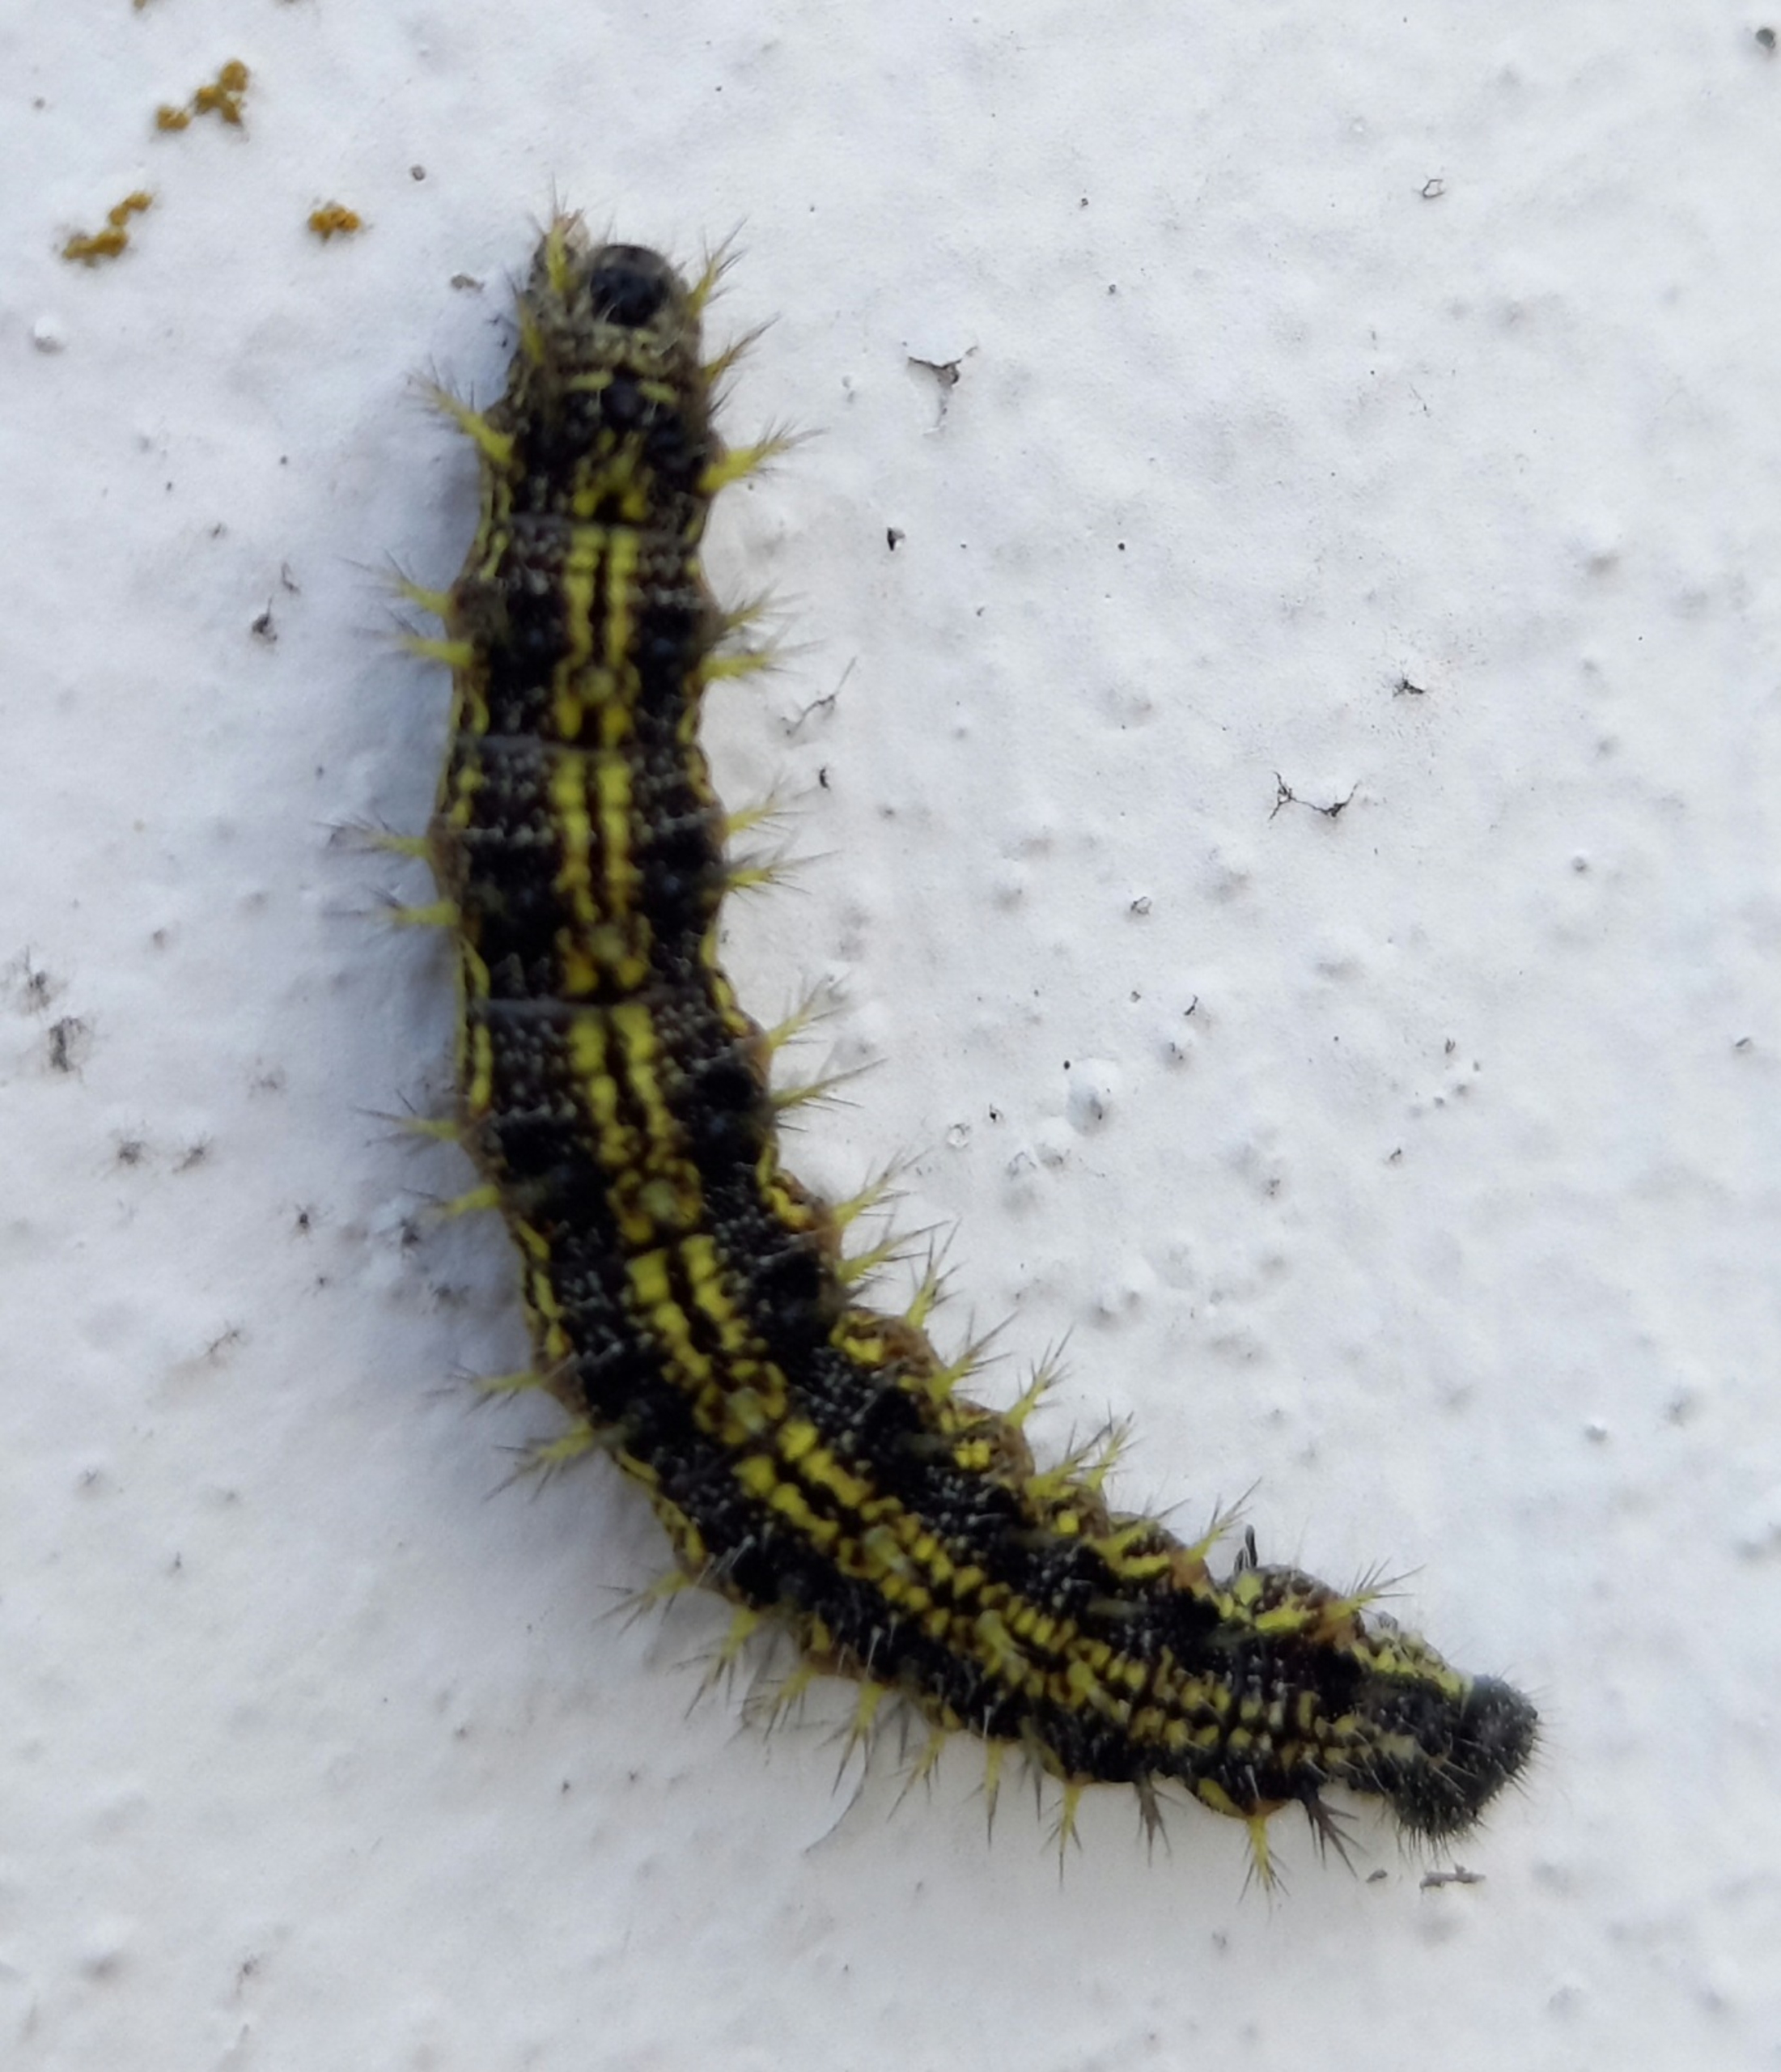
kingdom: Animalia
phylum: Arthropoda
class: Insecta
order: Lepidoptera
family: Nymphalidae
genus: Aglais
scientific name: Aglais urticae
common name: Nældens takvinge
